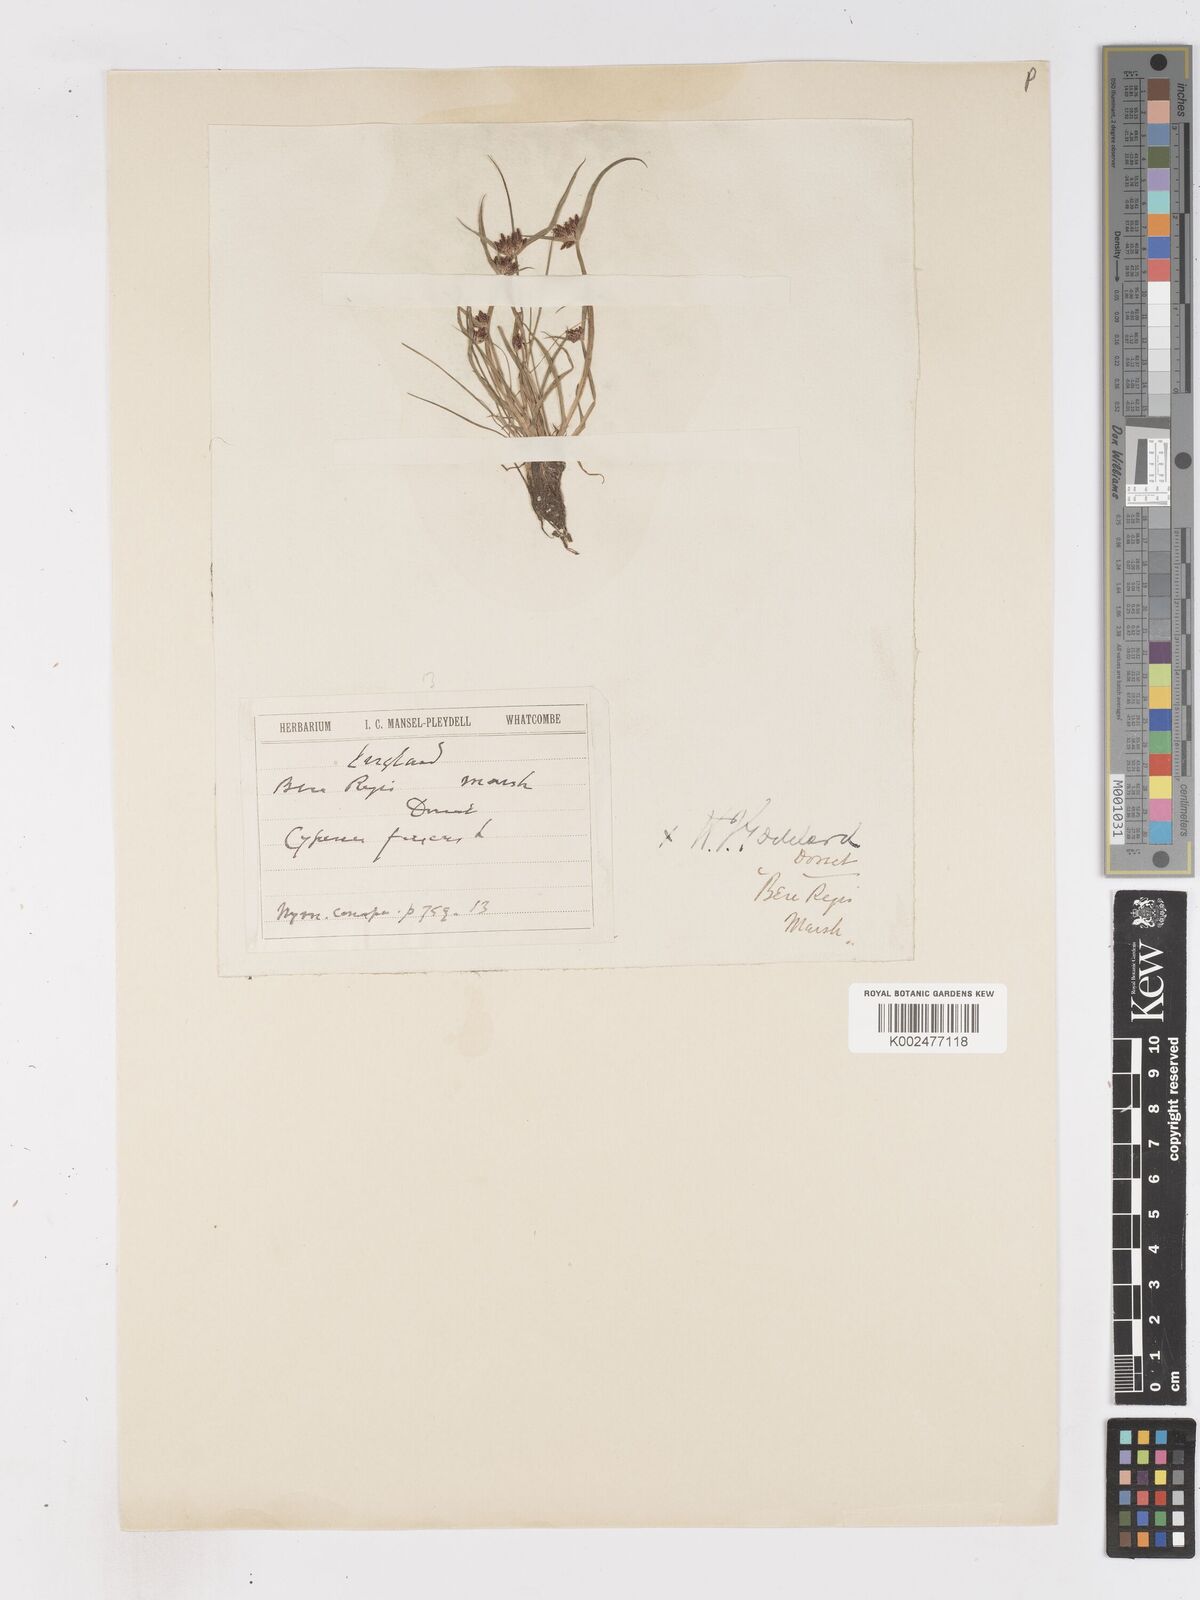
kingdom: Plantae
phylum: Tracheophyta
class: Liliopsida
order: Poales
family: Cyperaceae
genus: Cyperus
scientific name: Cyperus fuscus
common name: Brown galingale
